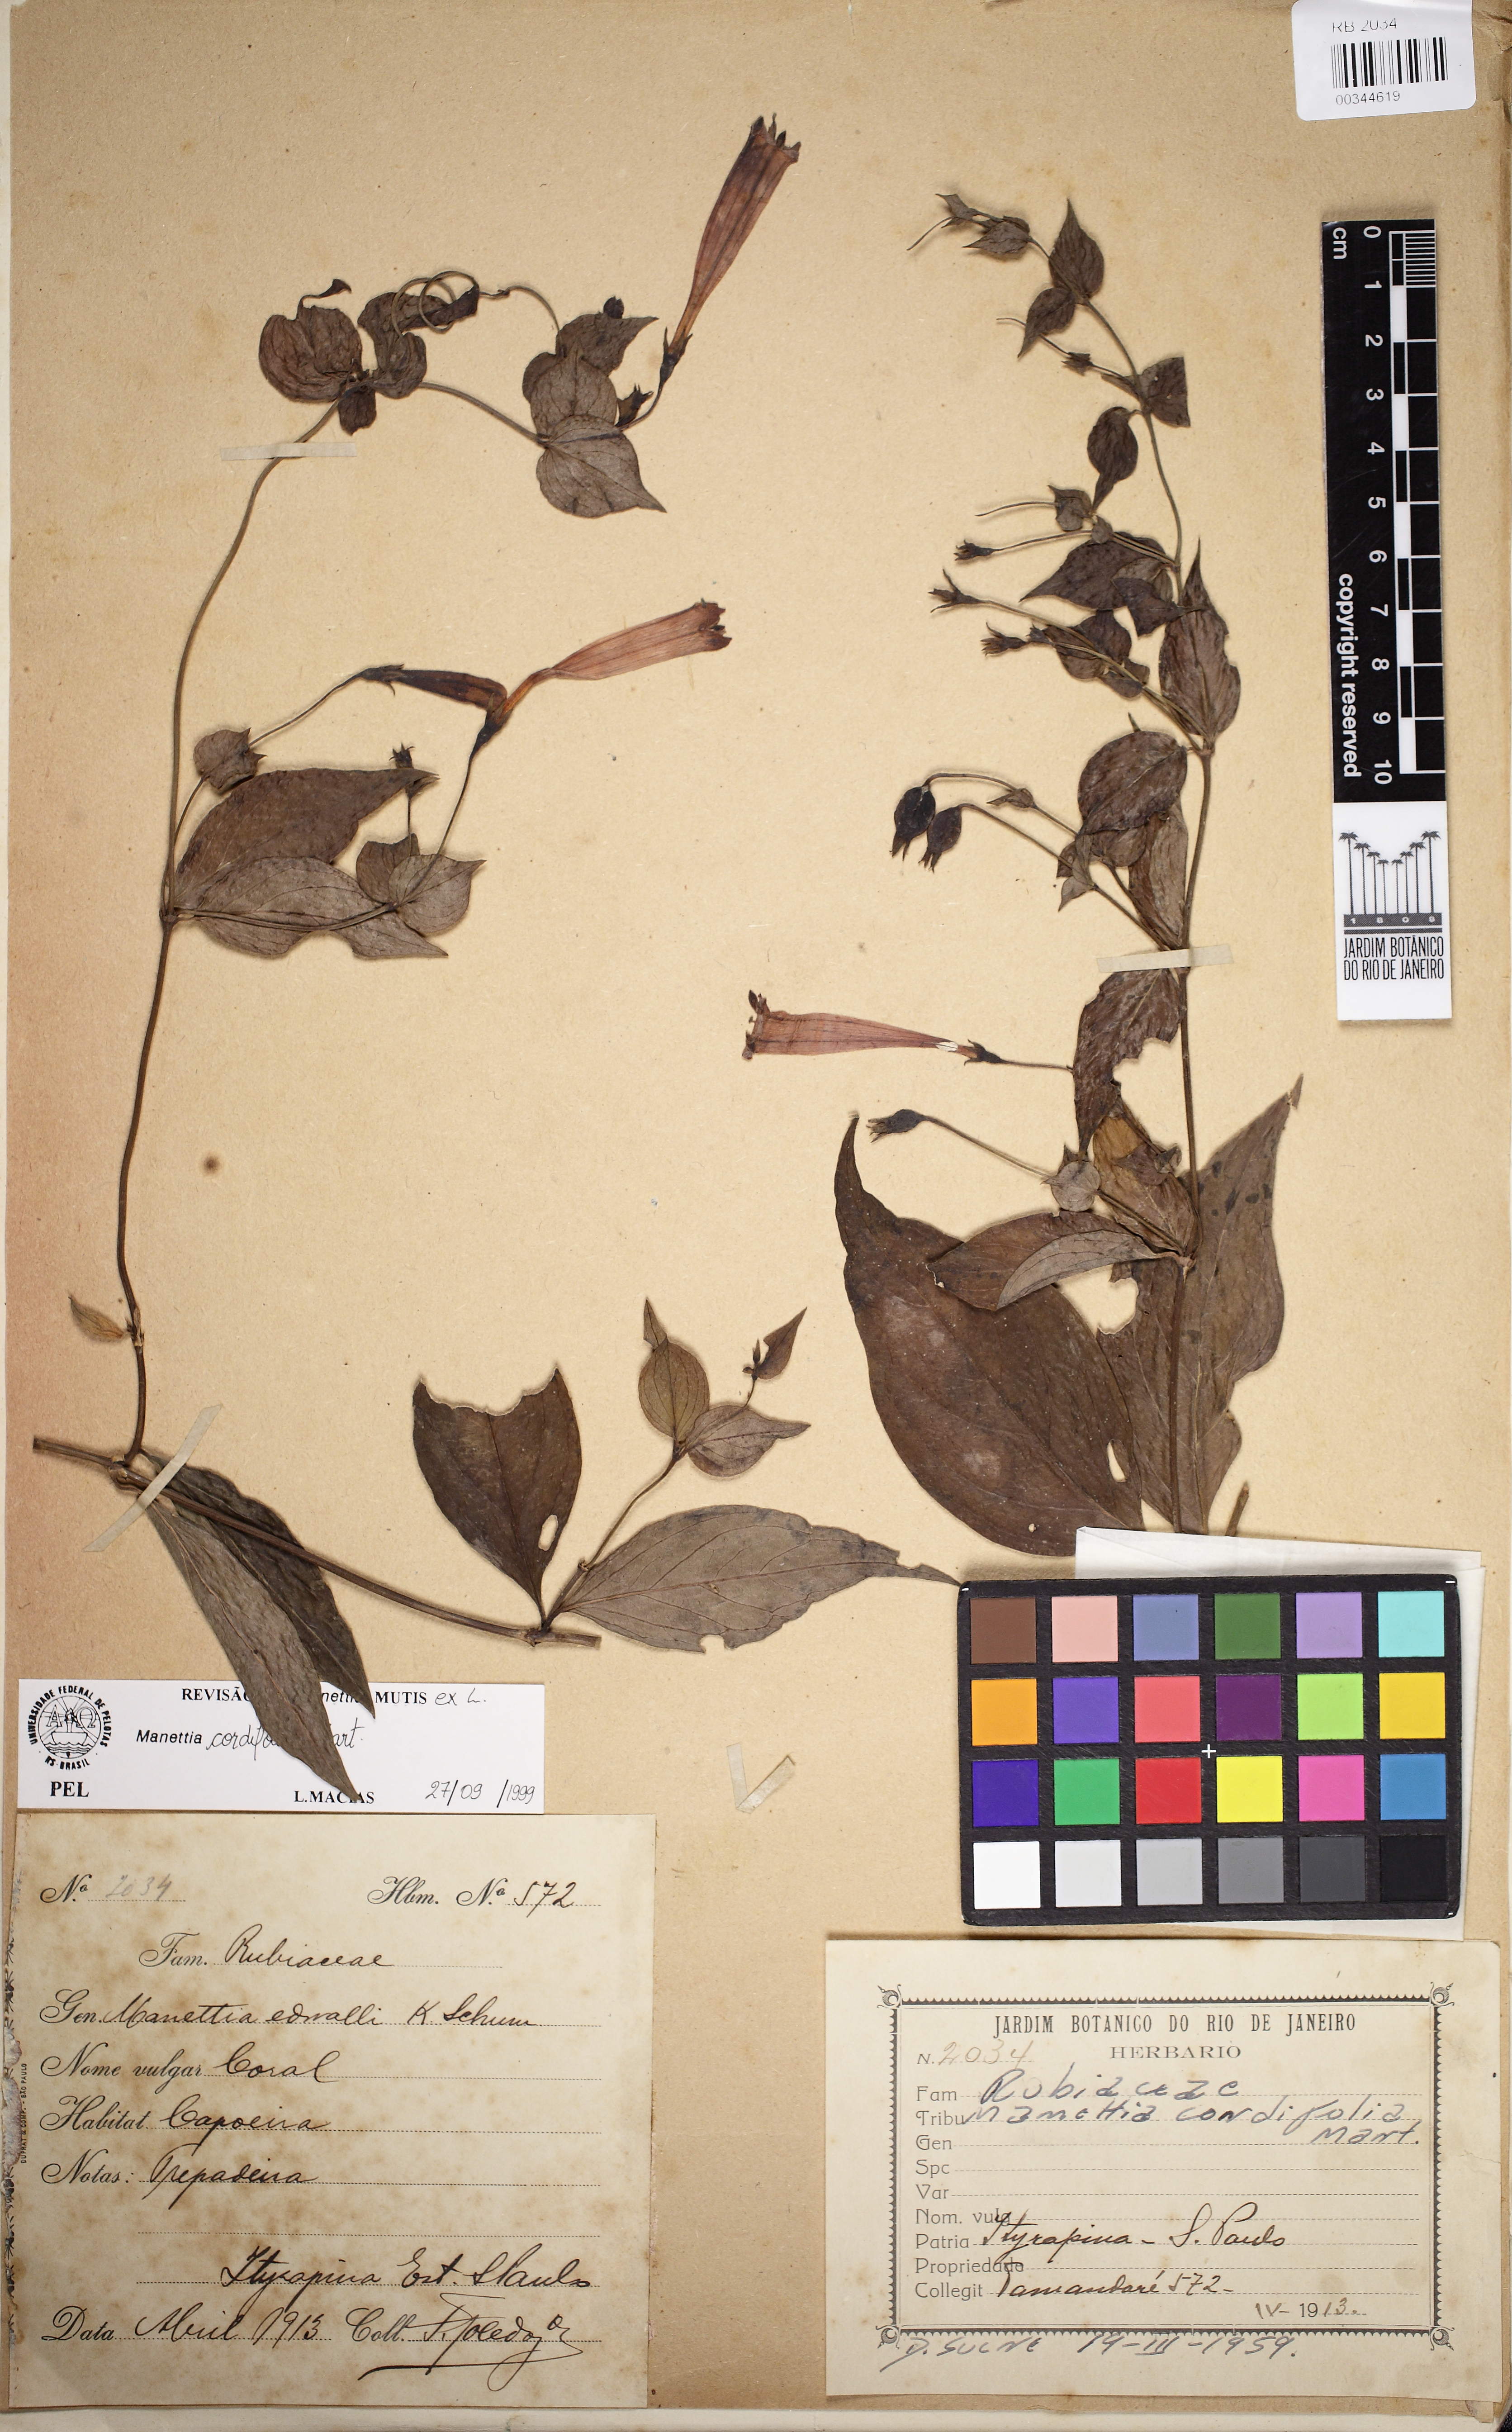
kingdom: Plantae
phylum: Tracheophyta
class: Magnoliopsida
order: Gentianales
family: Rubiaceae
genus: Manettia
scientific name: Manettia cordifolia
